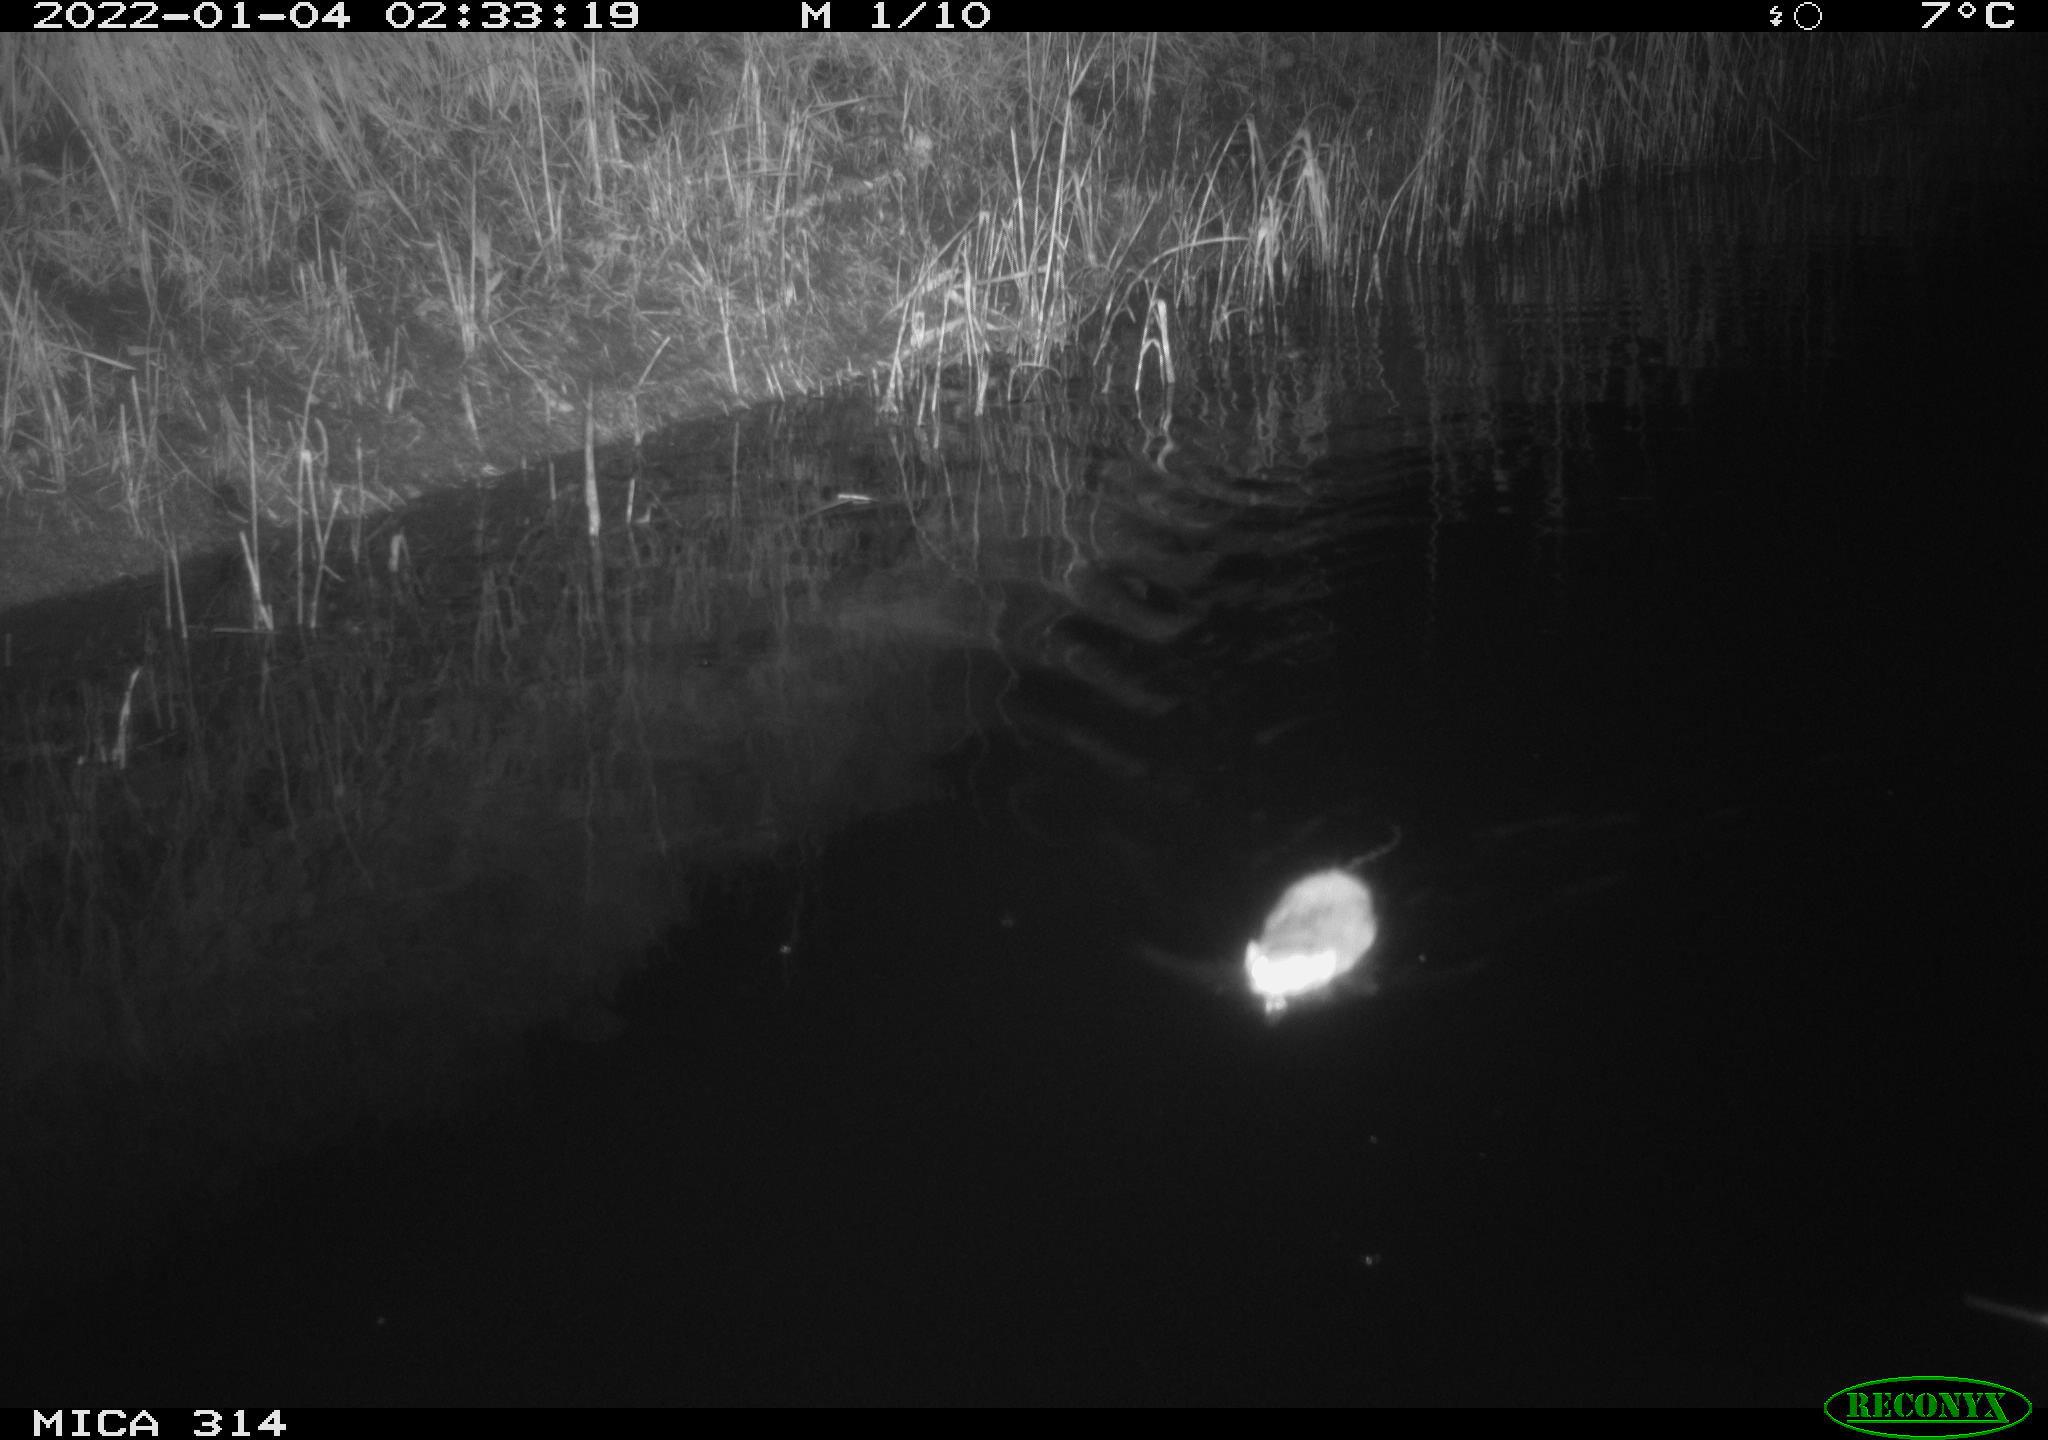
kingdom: Animalia
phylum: Chordata
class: Mammalia
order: Rodentia
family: Muridae
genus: Rattus
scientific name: Rattus norvegicus
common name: Brown rat
